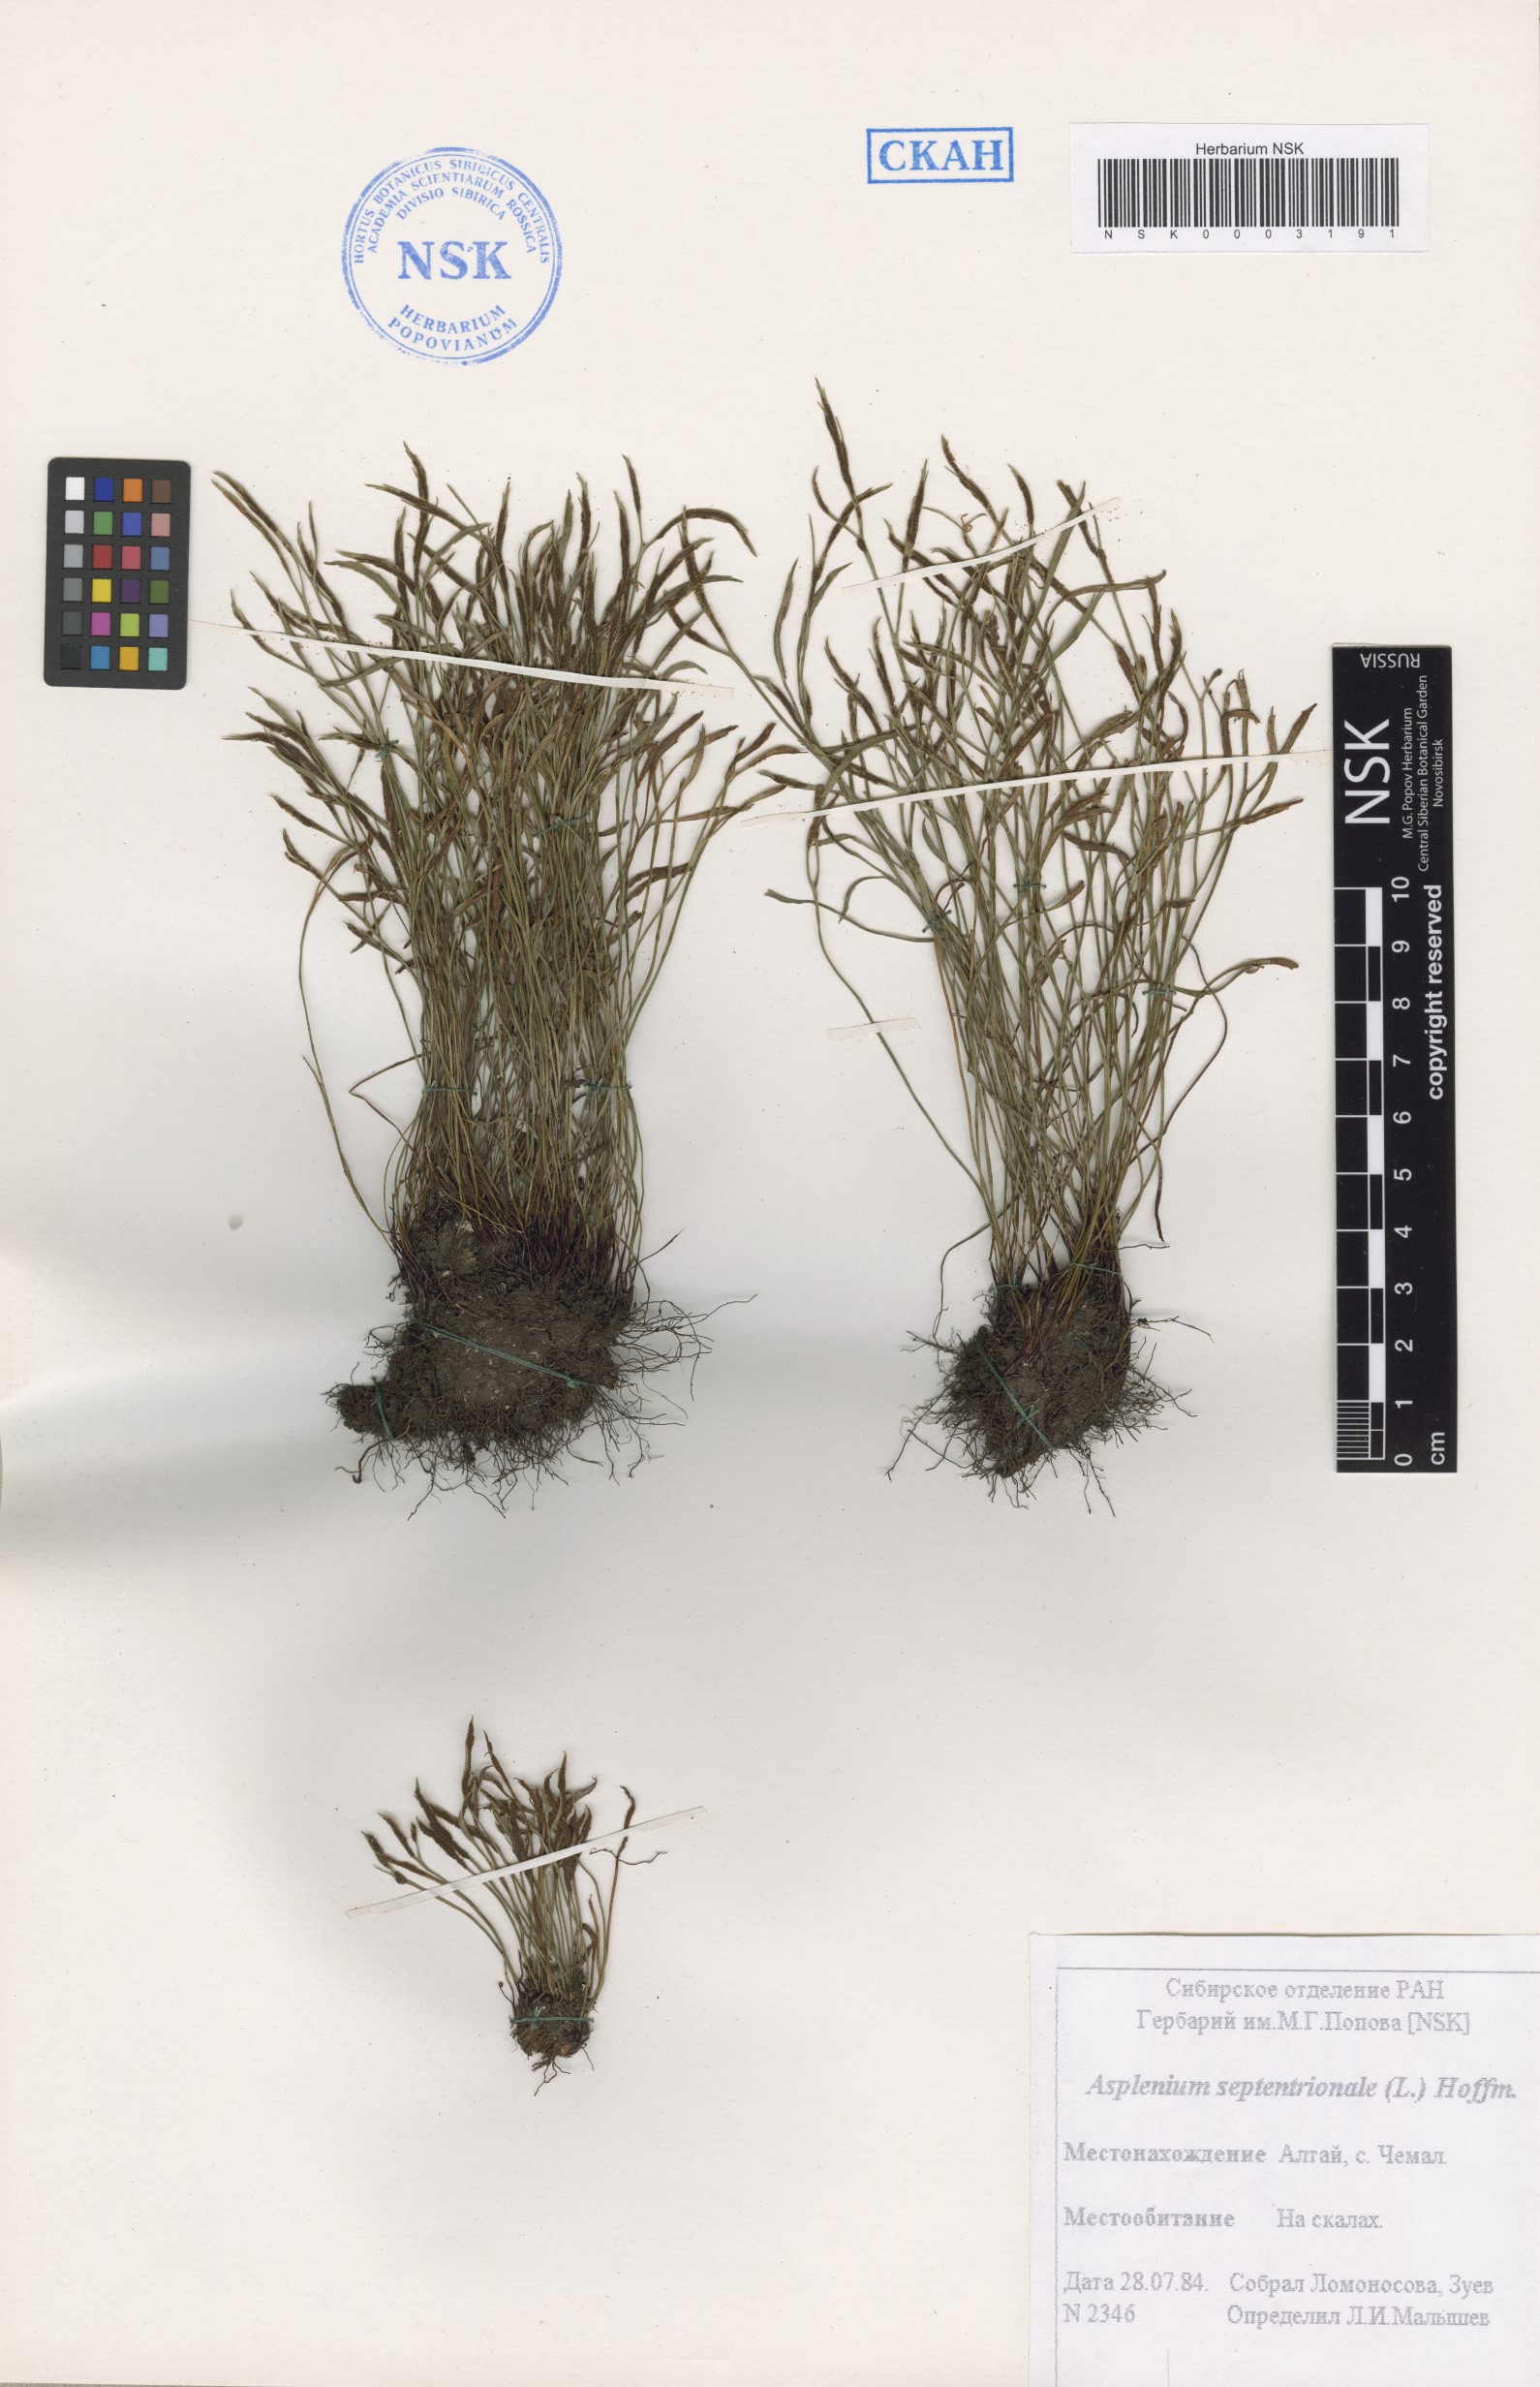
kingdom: Plantae
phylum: Tracheophyta
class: Polypodiopsida
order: Polypodiales
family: Aspleniaceae
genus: Asplenium
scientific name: Asplenium septentrionale
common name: Forked spleenwort
